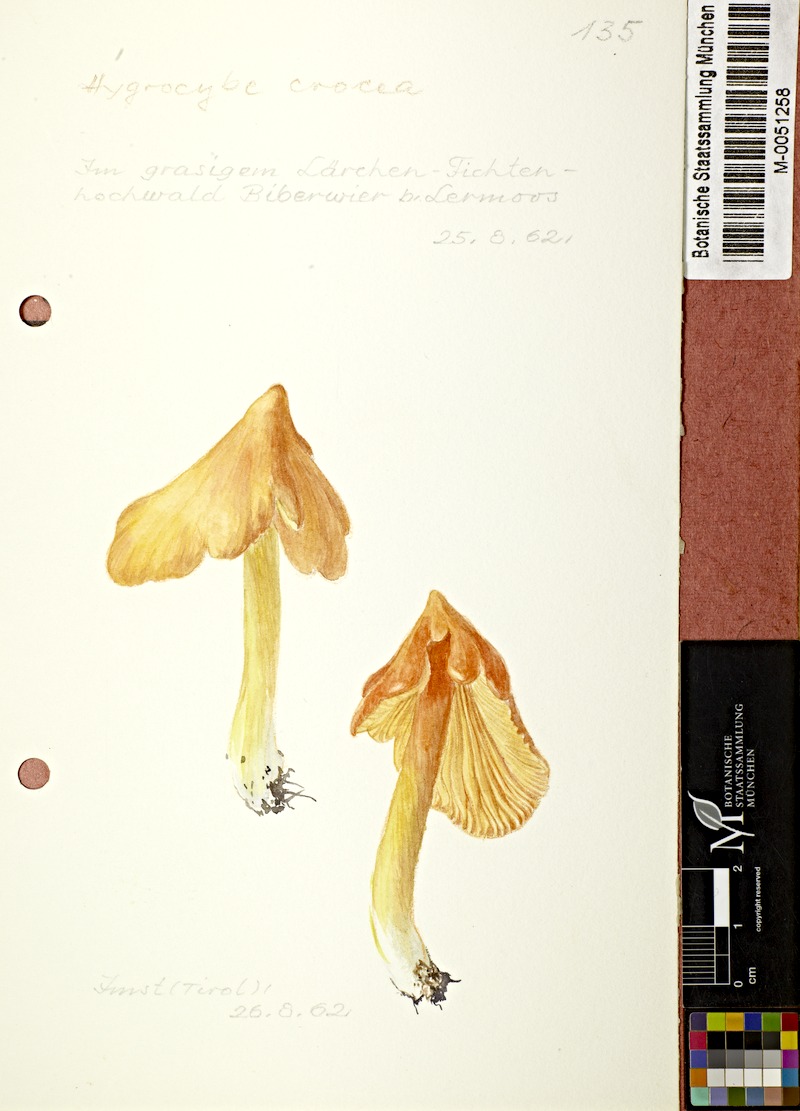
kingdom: Fungi
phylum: Basidiomycota
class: Agaricomycetes
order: Agaricales
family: Hygrophoraceae
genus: Hygrocybe
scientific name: Hygrocybe acutoconica
